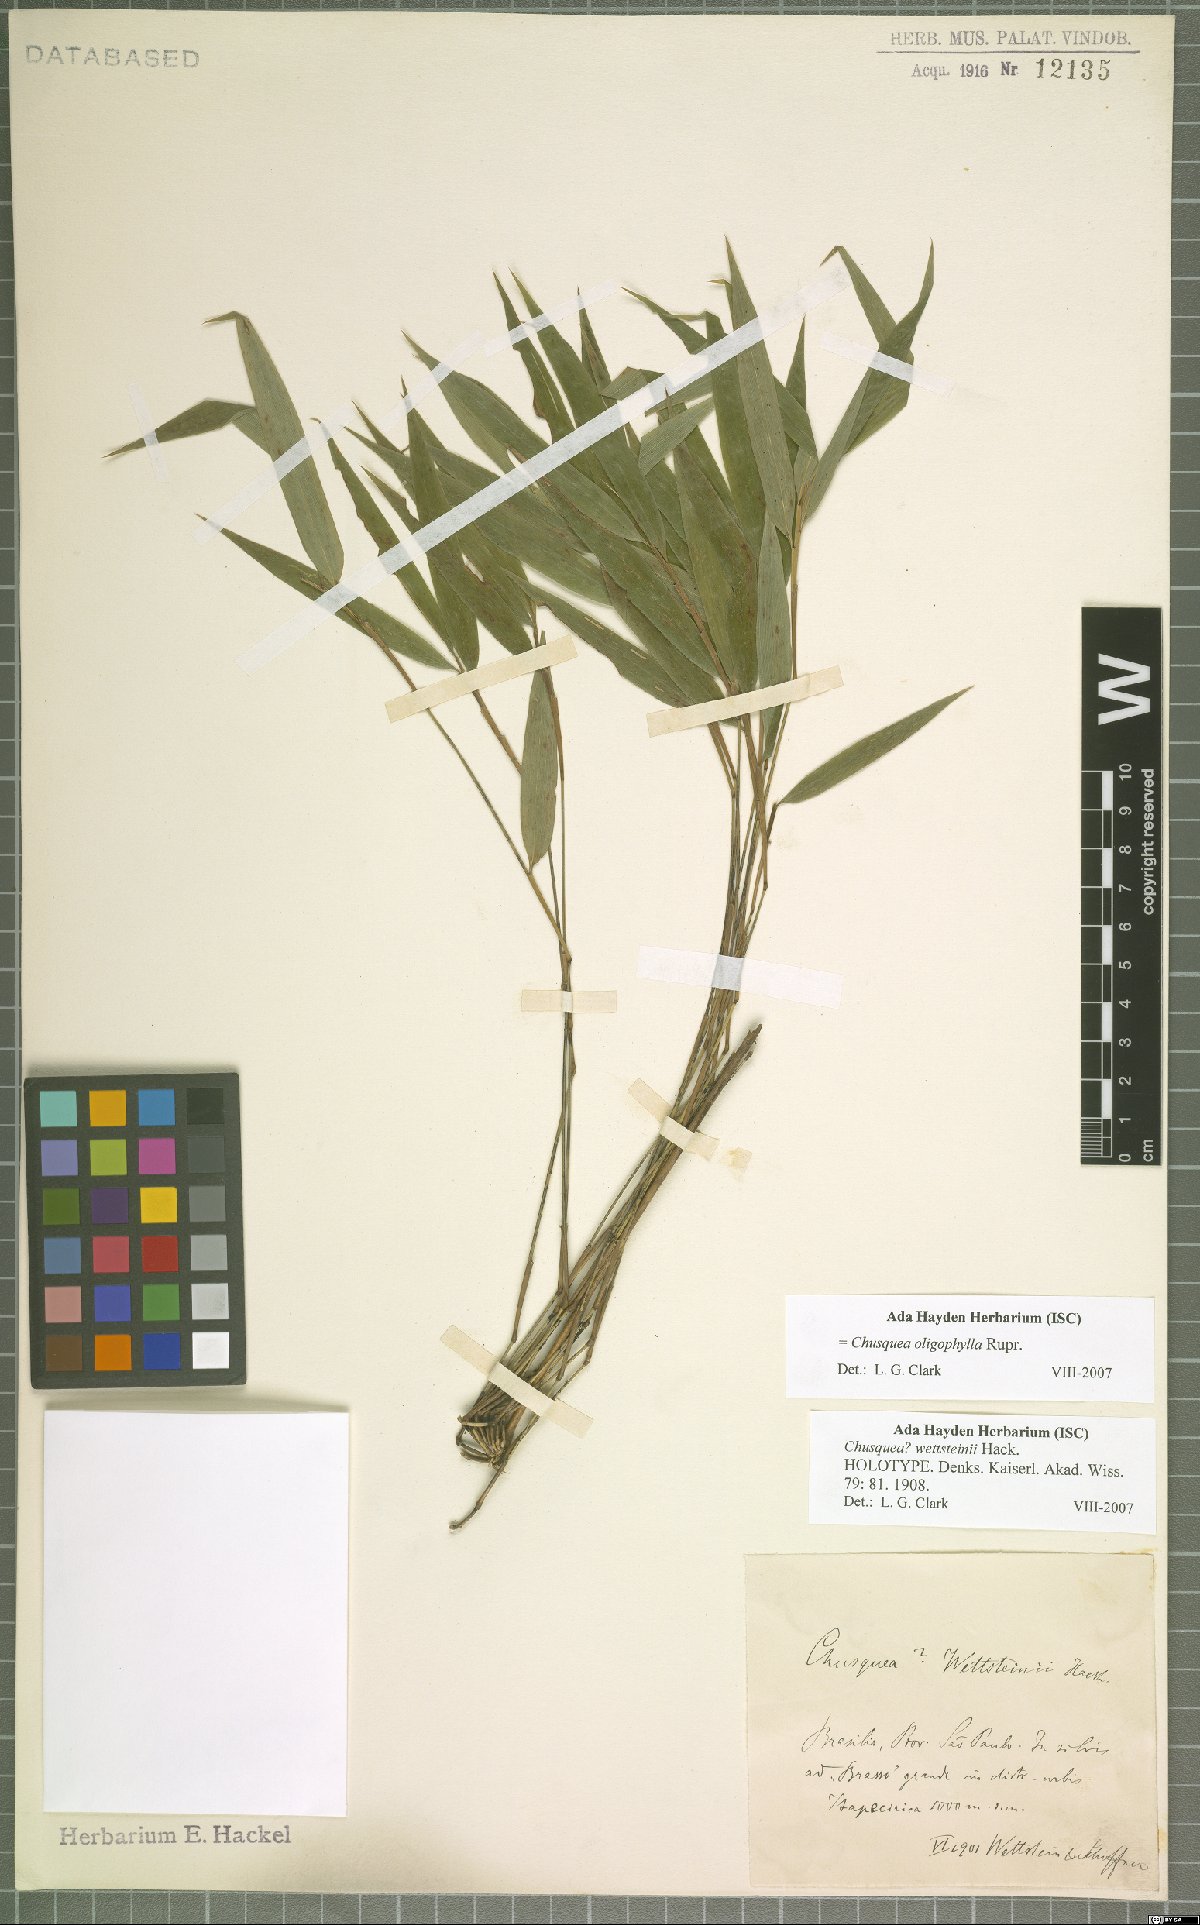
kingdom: Plantae
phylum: Tracheophyta
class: Liliopsida
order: Poales
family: Poaceae
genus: Chusquea
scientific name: Chusquea oligophylla
